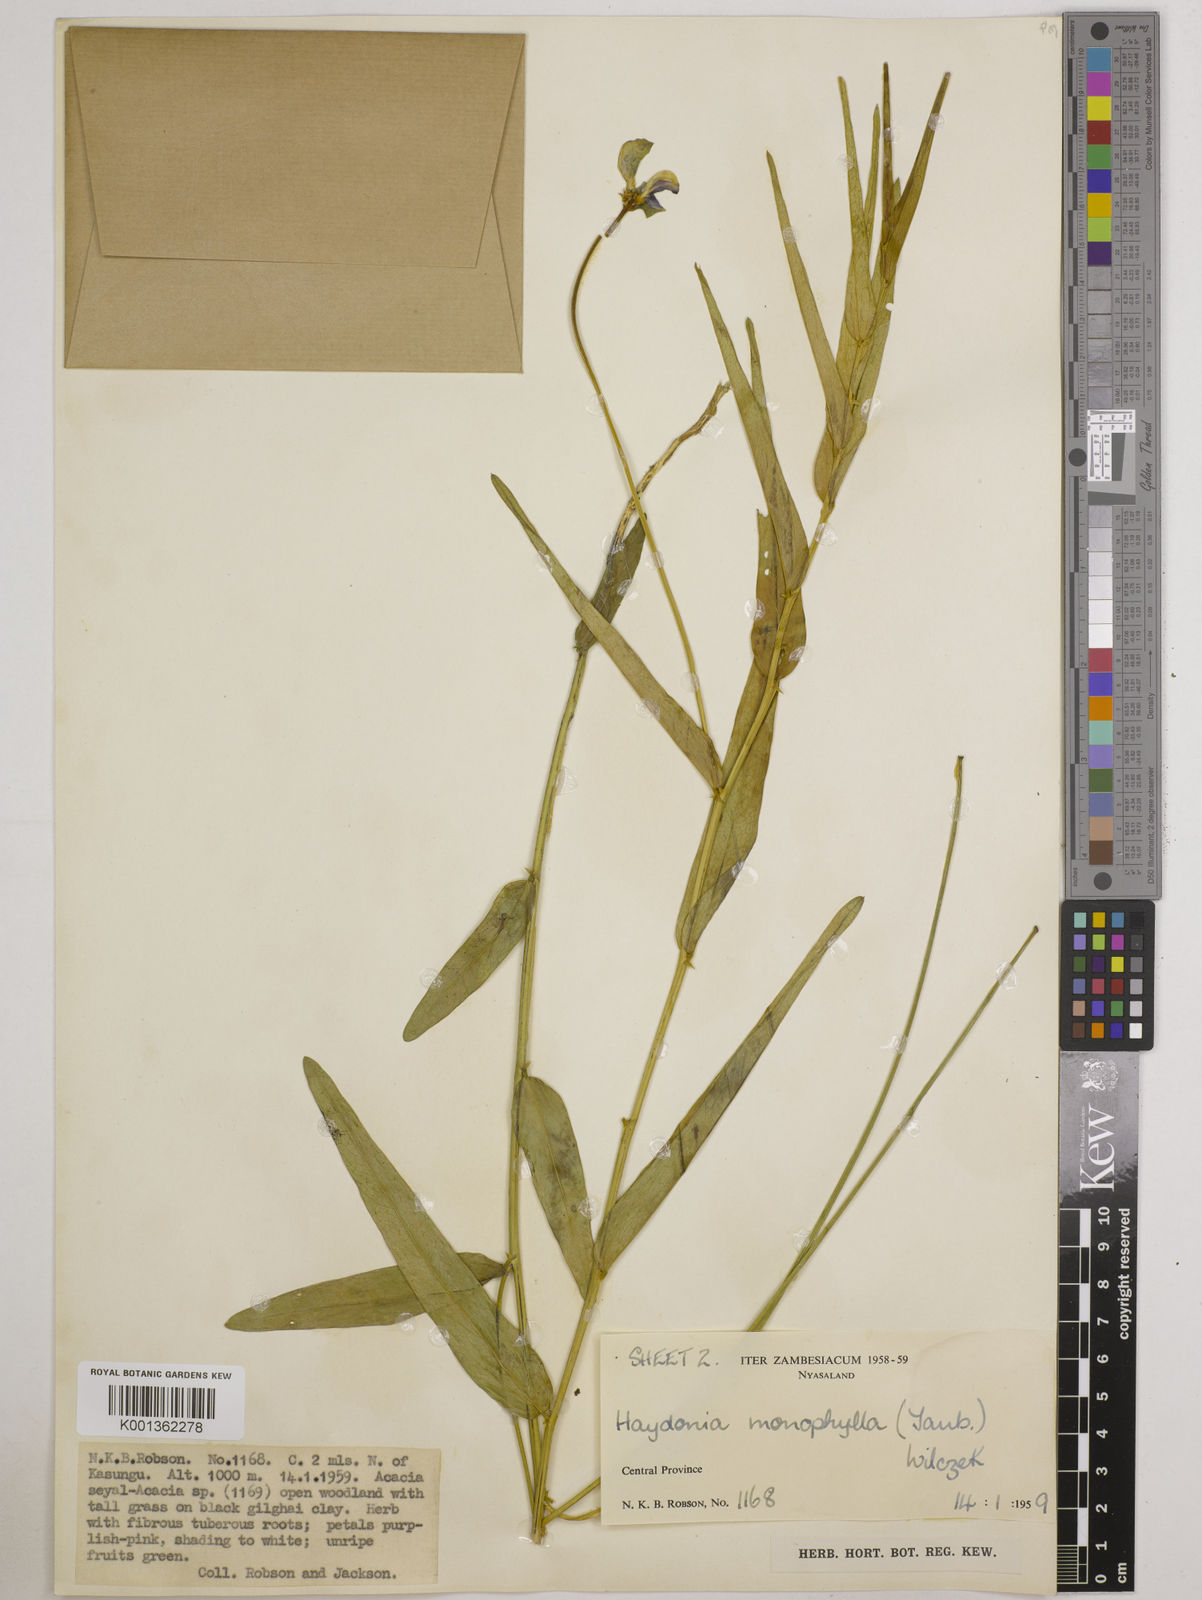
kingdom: Plantae
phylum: Tracheophyta
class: Magnoliopsida
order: Fabales
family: Fabaceae
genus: Vigna
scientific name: Vigna monophylla
